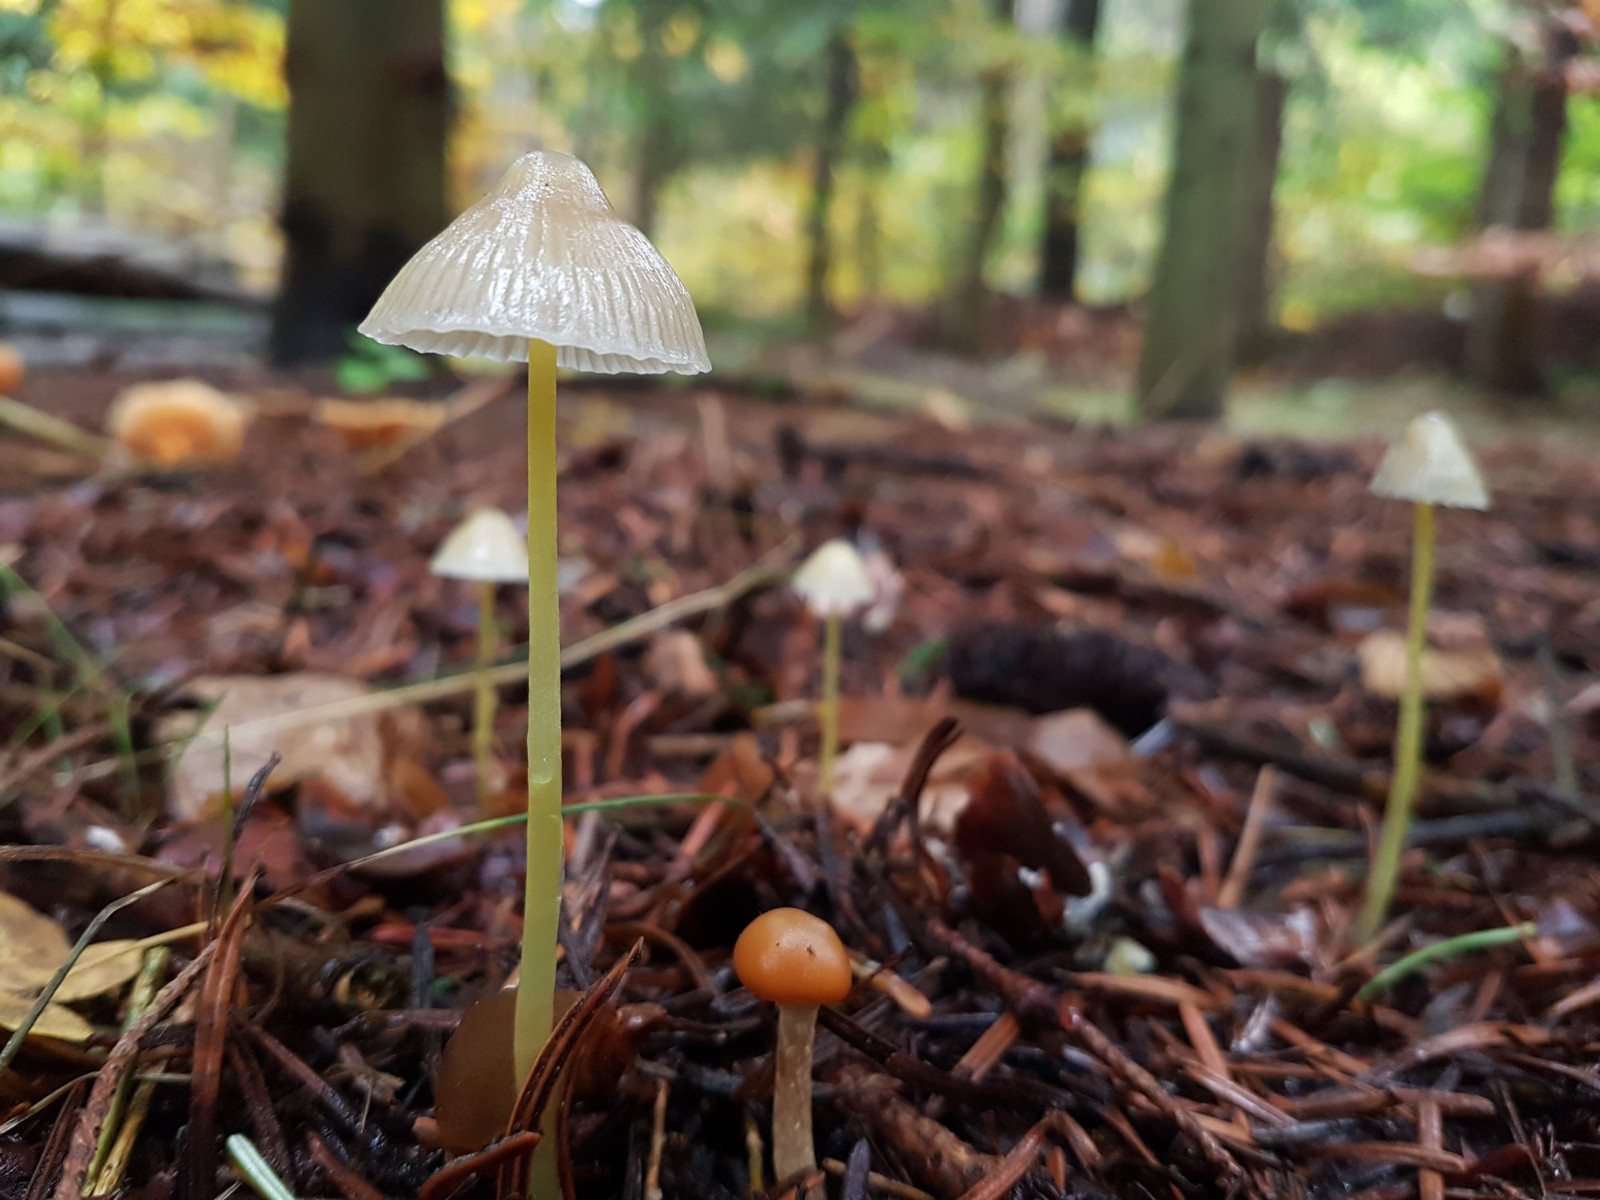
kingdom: Fungi
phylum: Basidiomycota
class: Agaricomycetes
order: Agaricales
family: Mycenaceae
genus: Mycena
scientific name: Mycena epipterygia
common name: gulstokket huesvamp
